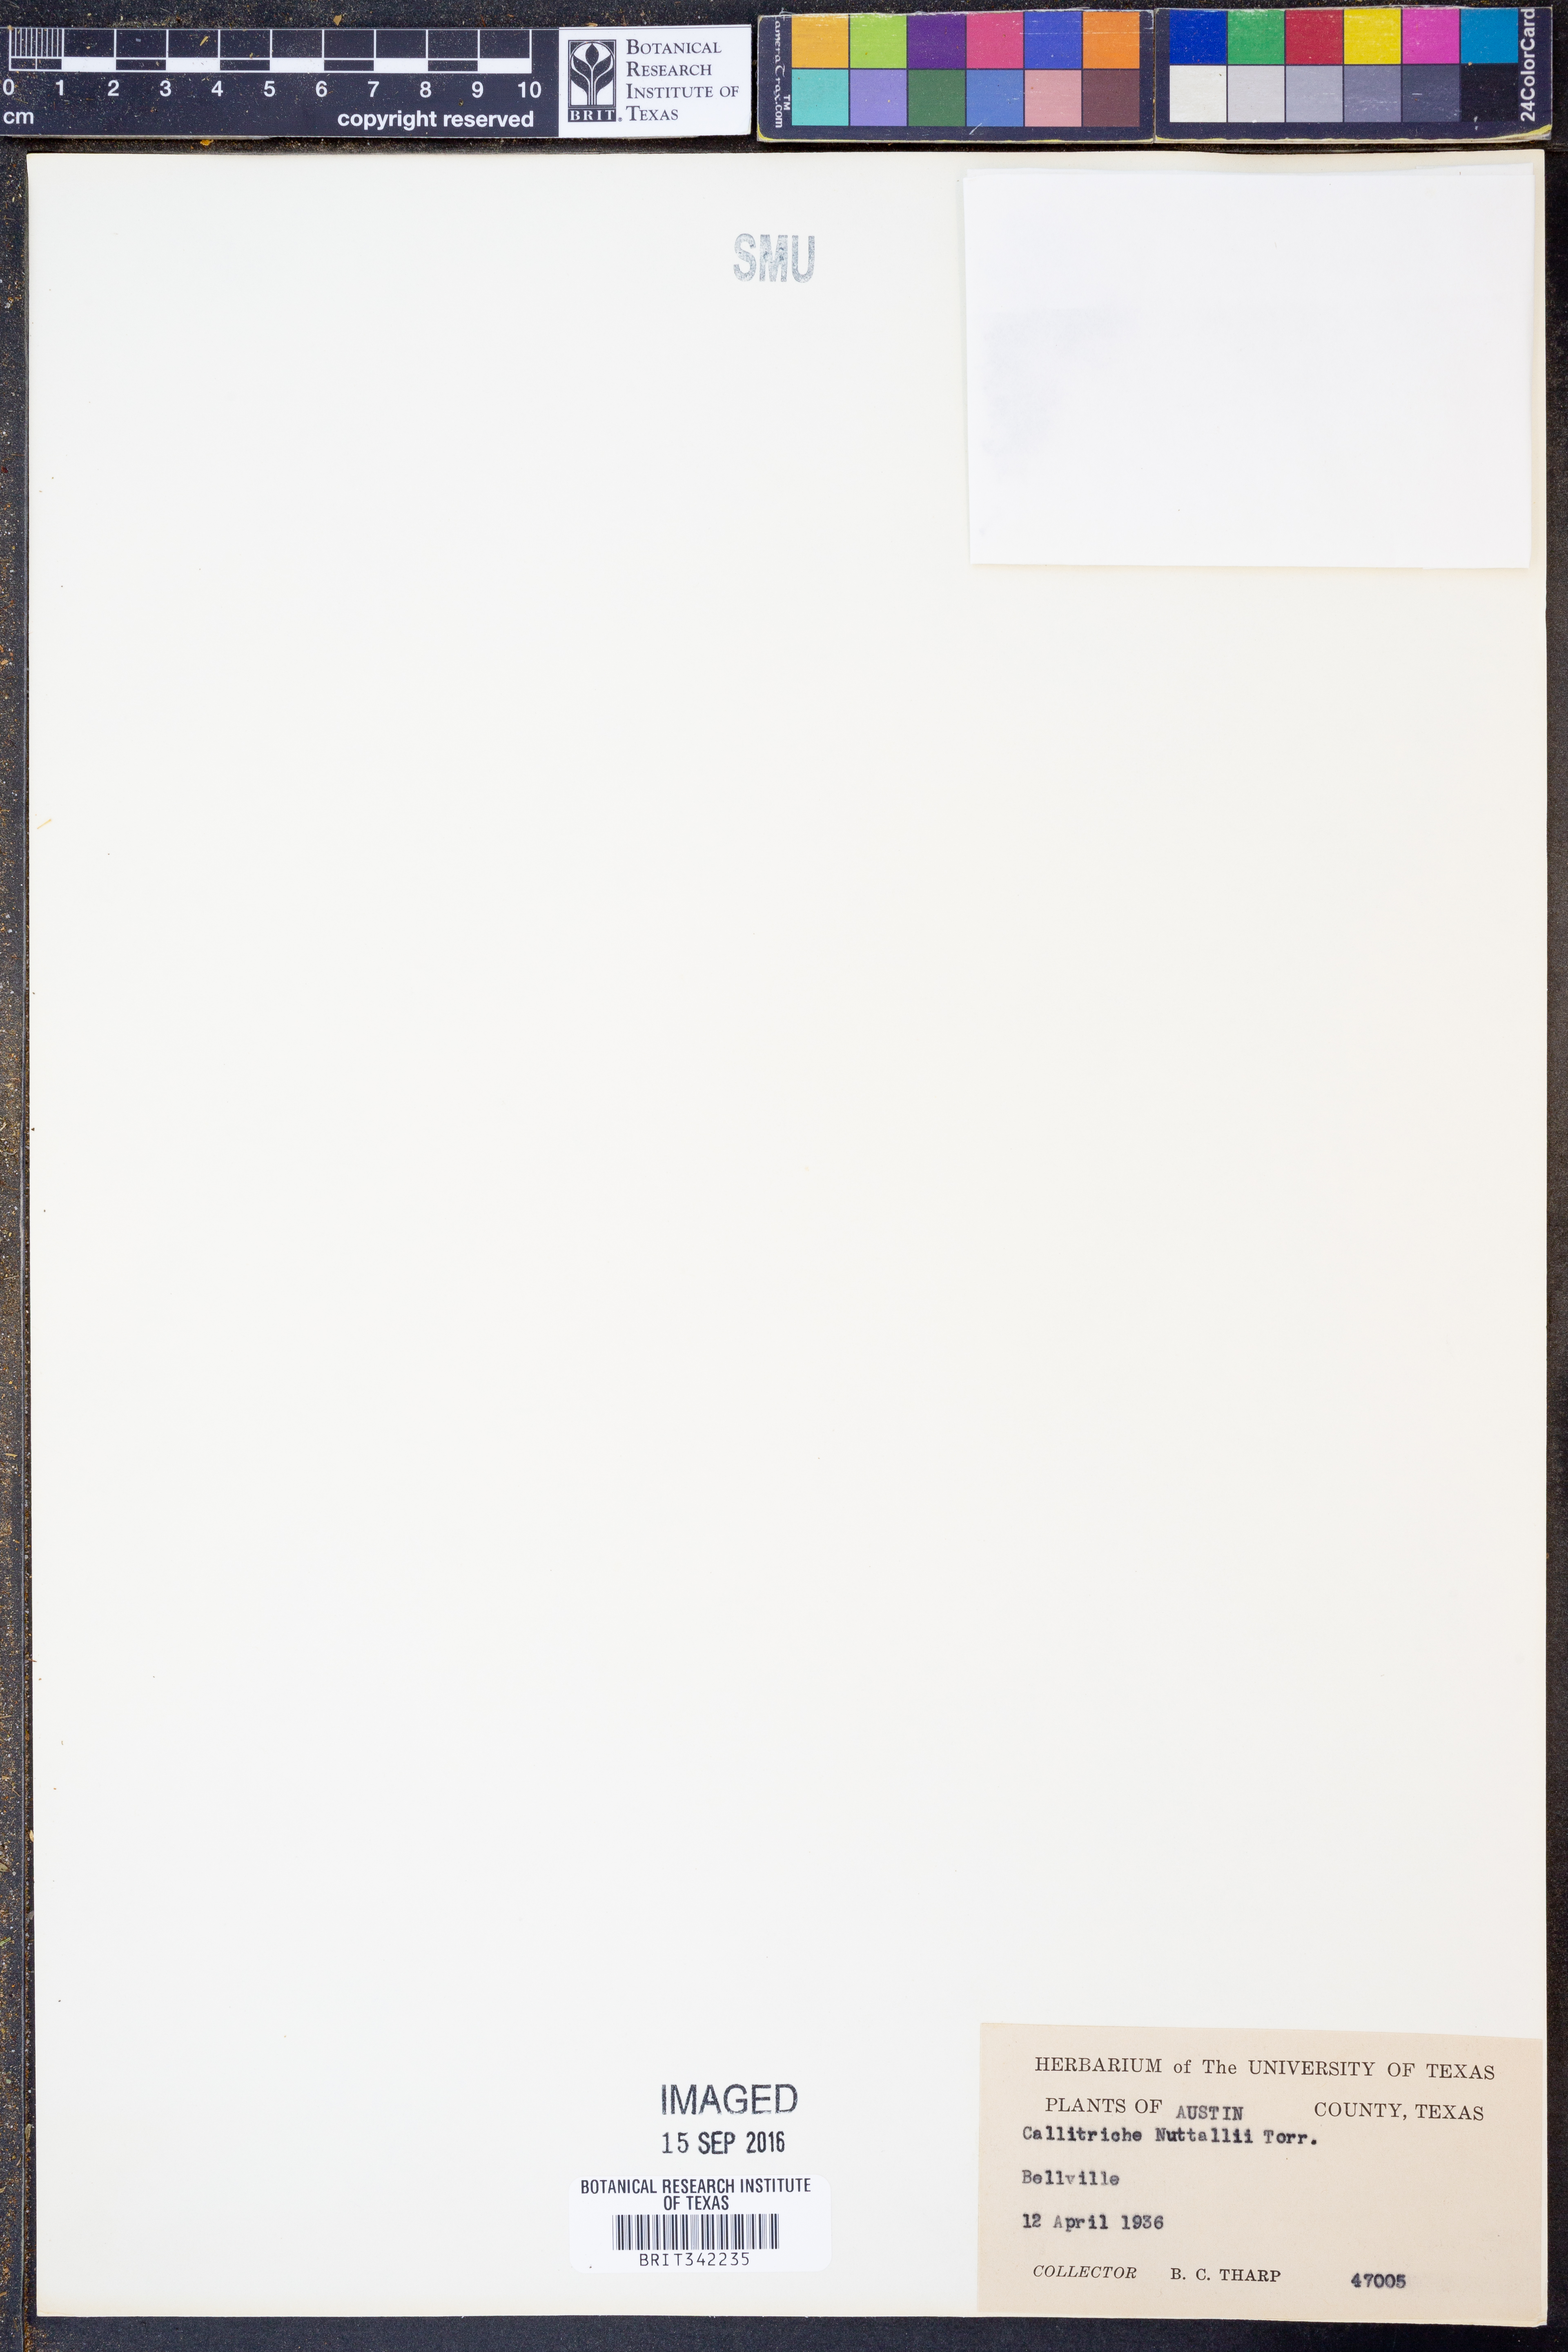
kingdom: Plantae
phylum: Tracheophyta
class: Magnoliopsida
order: Lamiales
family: Plantaginaceae
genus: Callitriche
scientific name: Callitriche pedunculosa
